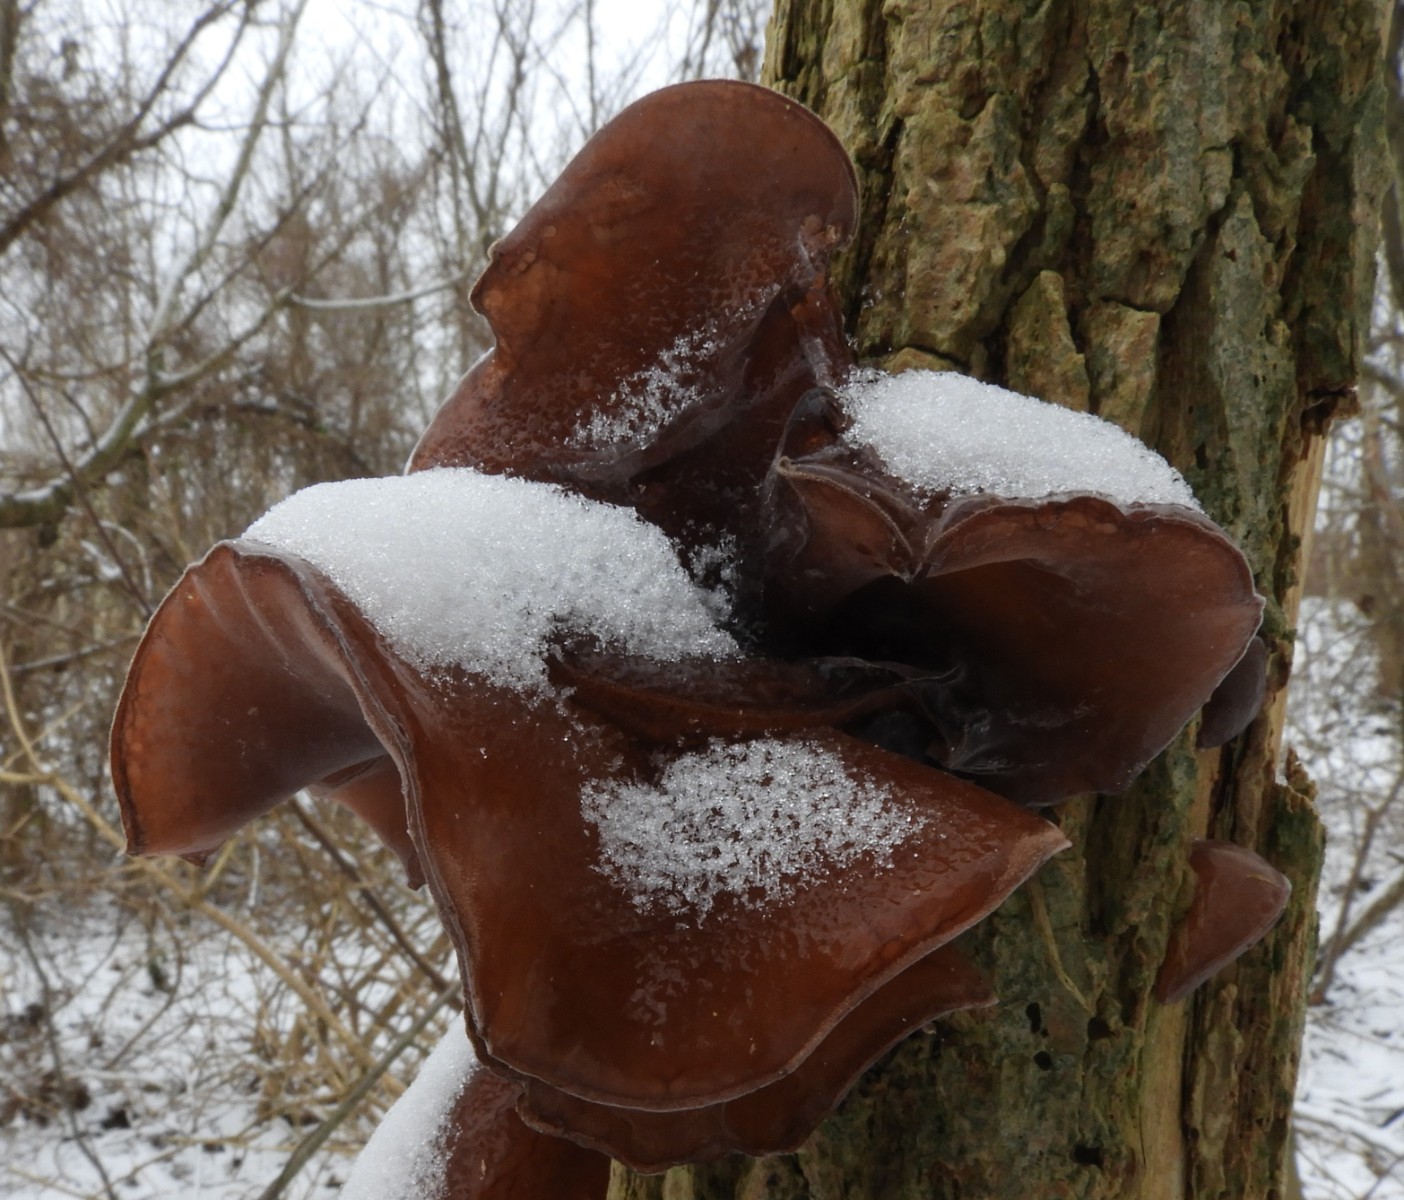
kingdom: Fungi
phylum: Basidiomycota
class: Agaricomycetes
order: Auriculariales
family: Auriculariaceae
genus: Auricularia
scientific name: Auricularia auricula-judae
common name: almindelig judasøre
